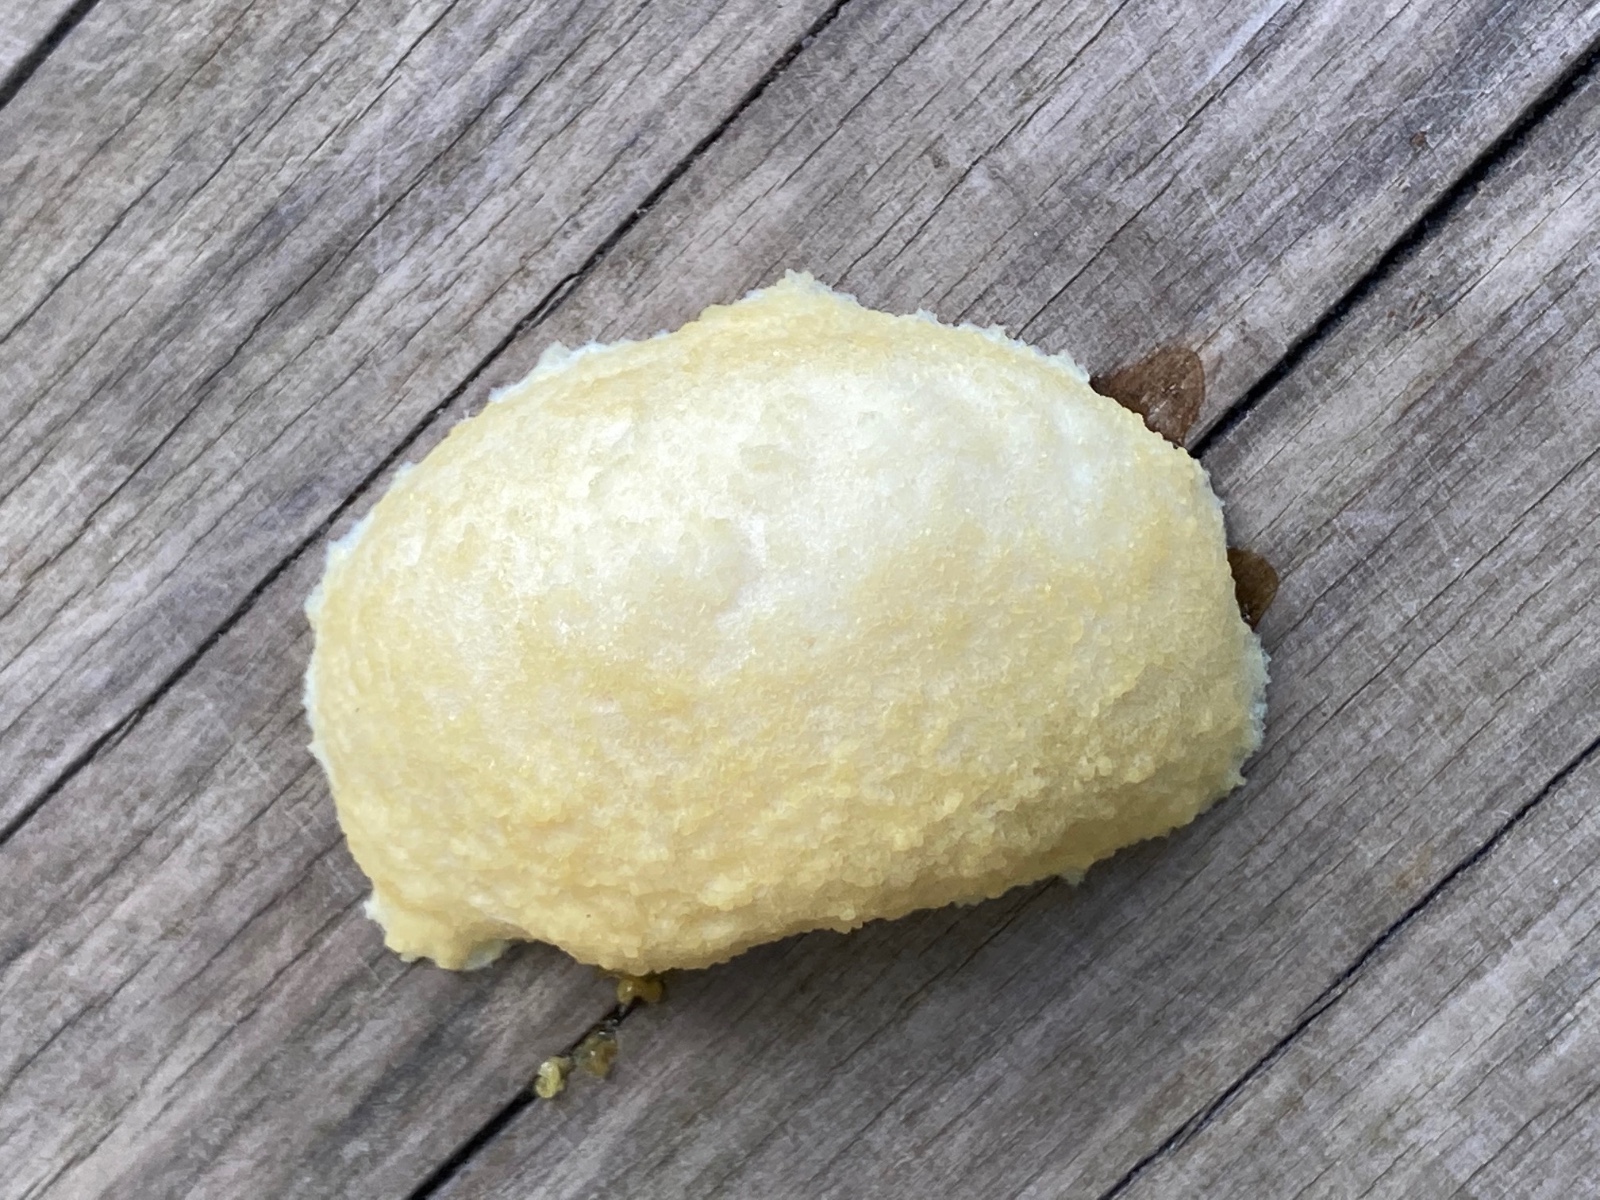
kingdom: Protozoa
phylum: Mycetozoa
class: Myxomycetes
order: Cribrariales
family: Tubiferaceae
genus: Reticularia
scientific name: Reticularia lycoperdon
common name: skinnende støvpude
